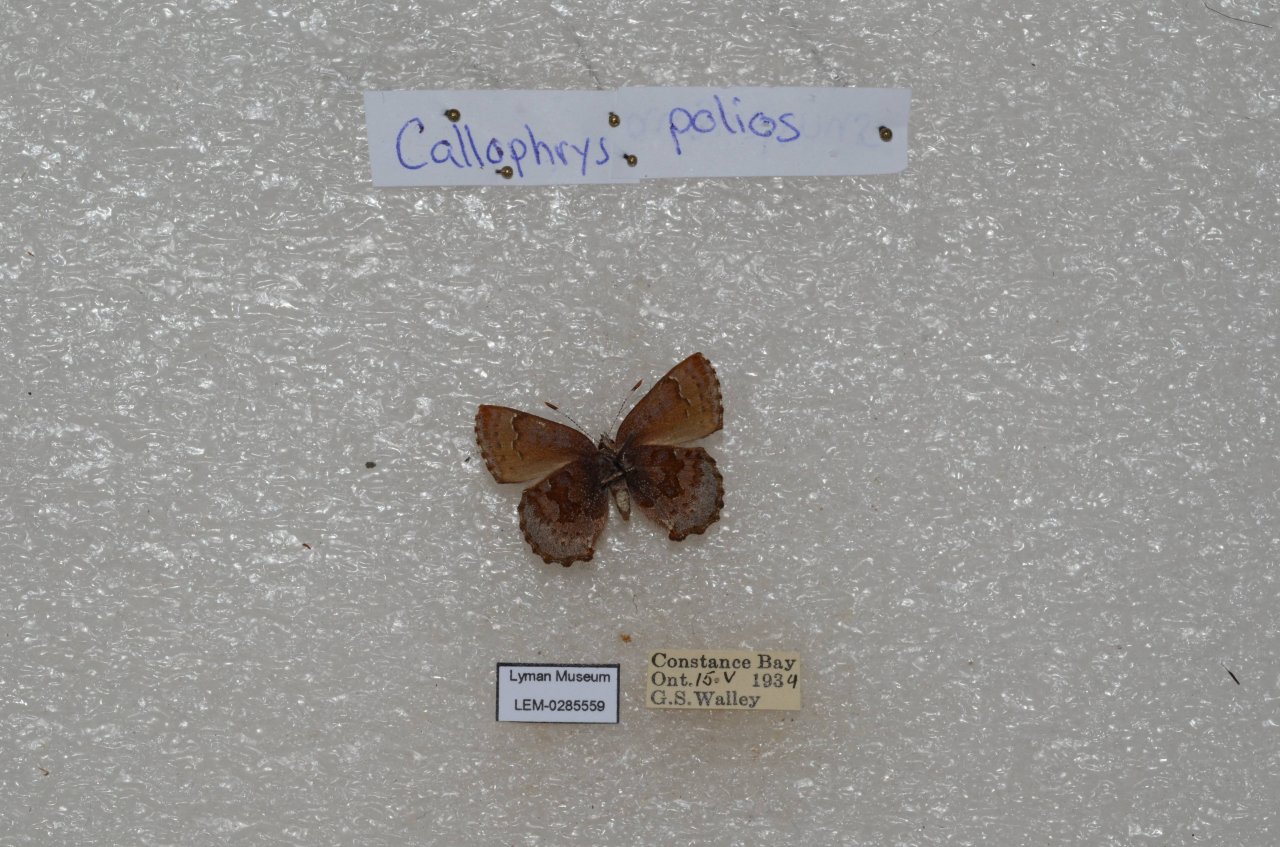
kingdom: Animalia
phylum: Arthropoda
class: Insecta
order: Lepidoptera
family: Lycaenidae
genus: Callophrys
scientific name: Callophrys polios
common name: Hoary Elfin
